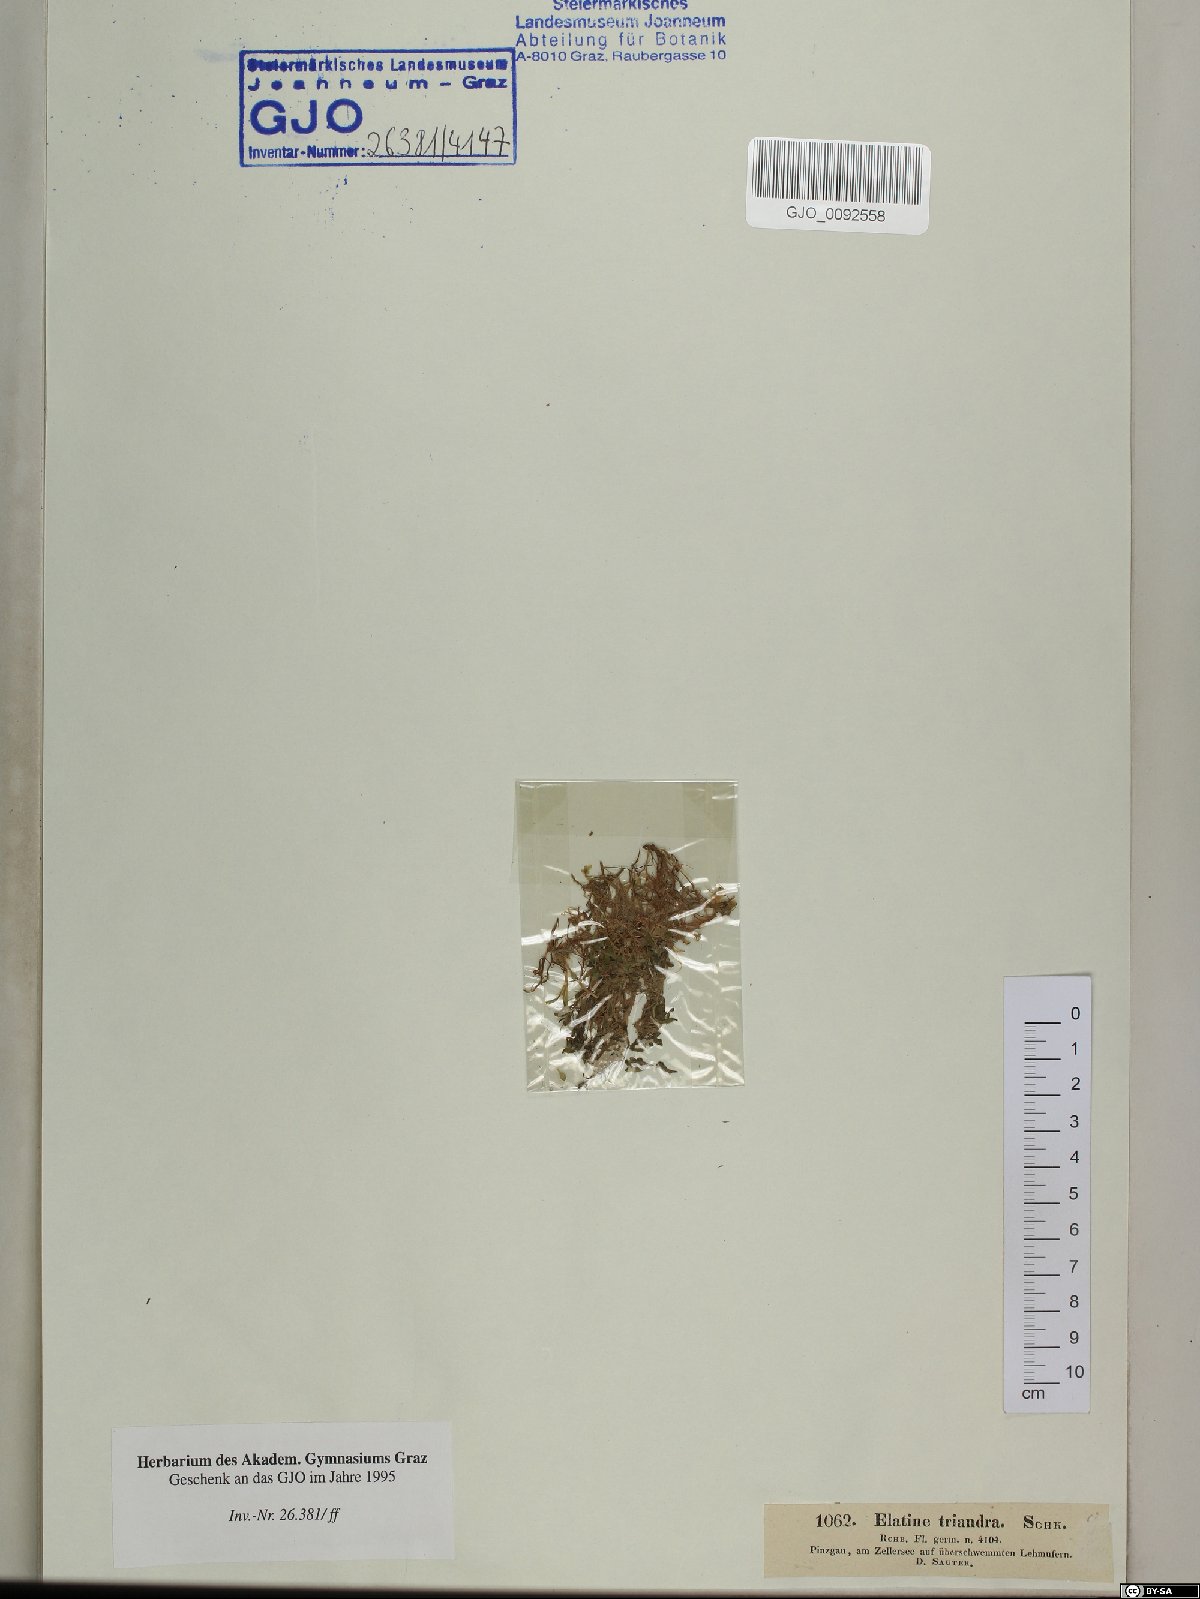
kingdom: Plantae
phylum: Tracheophyta
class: Magnoliopsida
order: Malpighiales
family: Elatinaceae
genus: Elatine
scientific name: Elatine triandra
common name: Three-stamened waterwort
